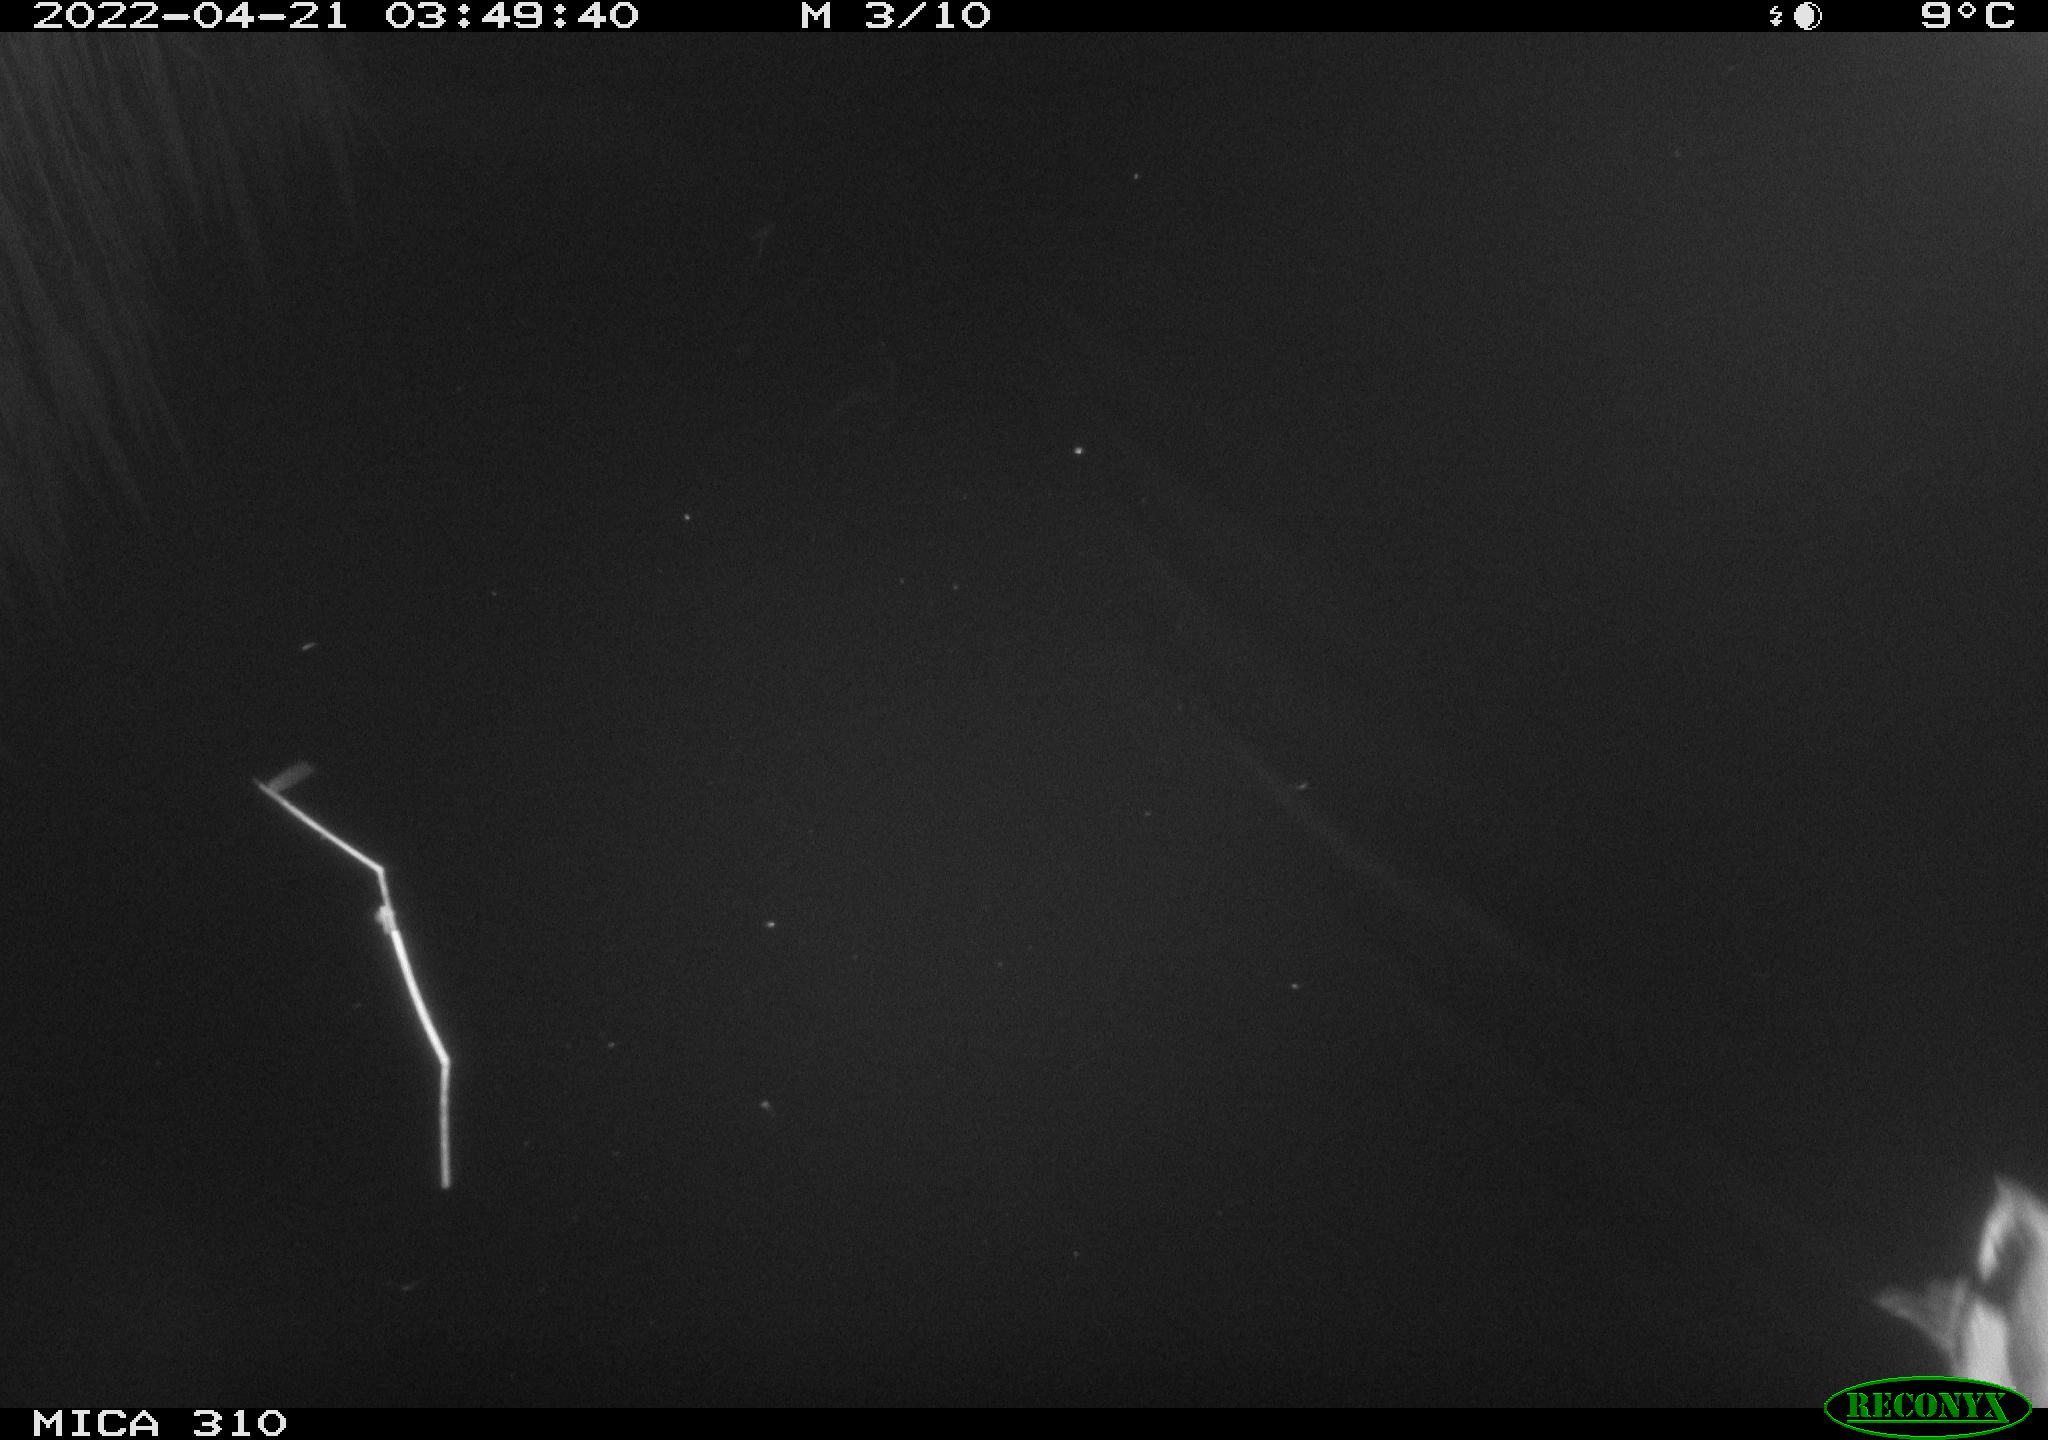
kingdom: Animalia
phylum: Chordata
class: Aves
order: Anseriformes
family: Anatidae
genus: Anas
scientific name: Anas platyrhynchos
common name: Mallard
